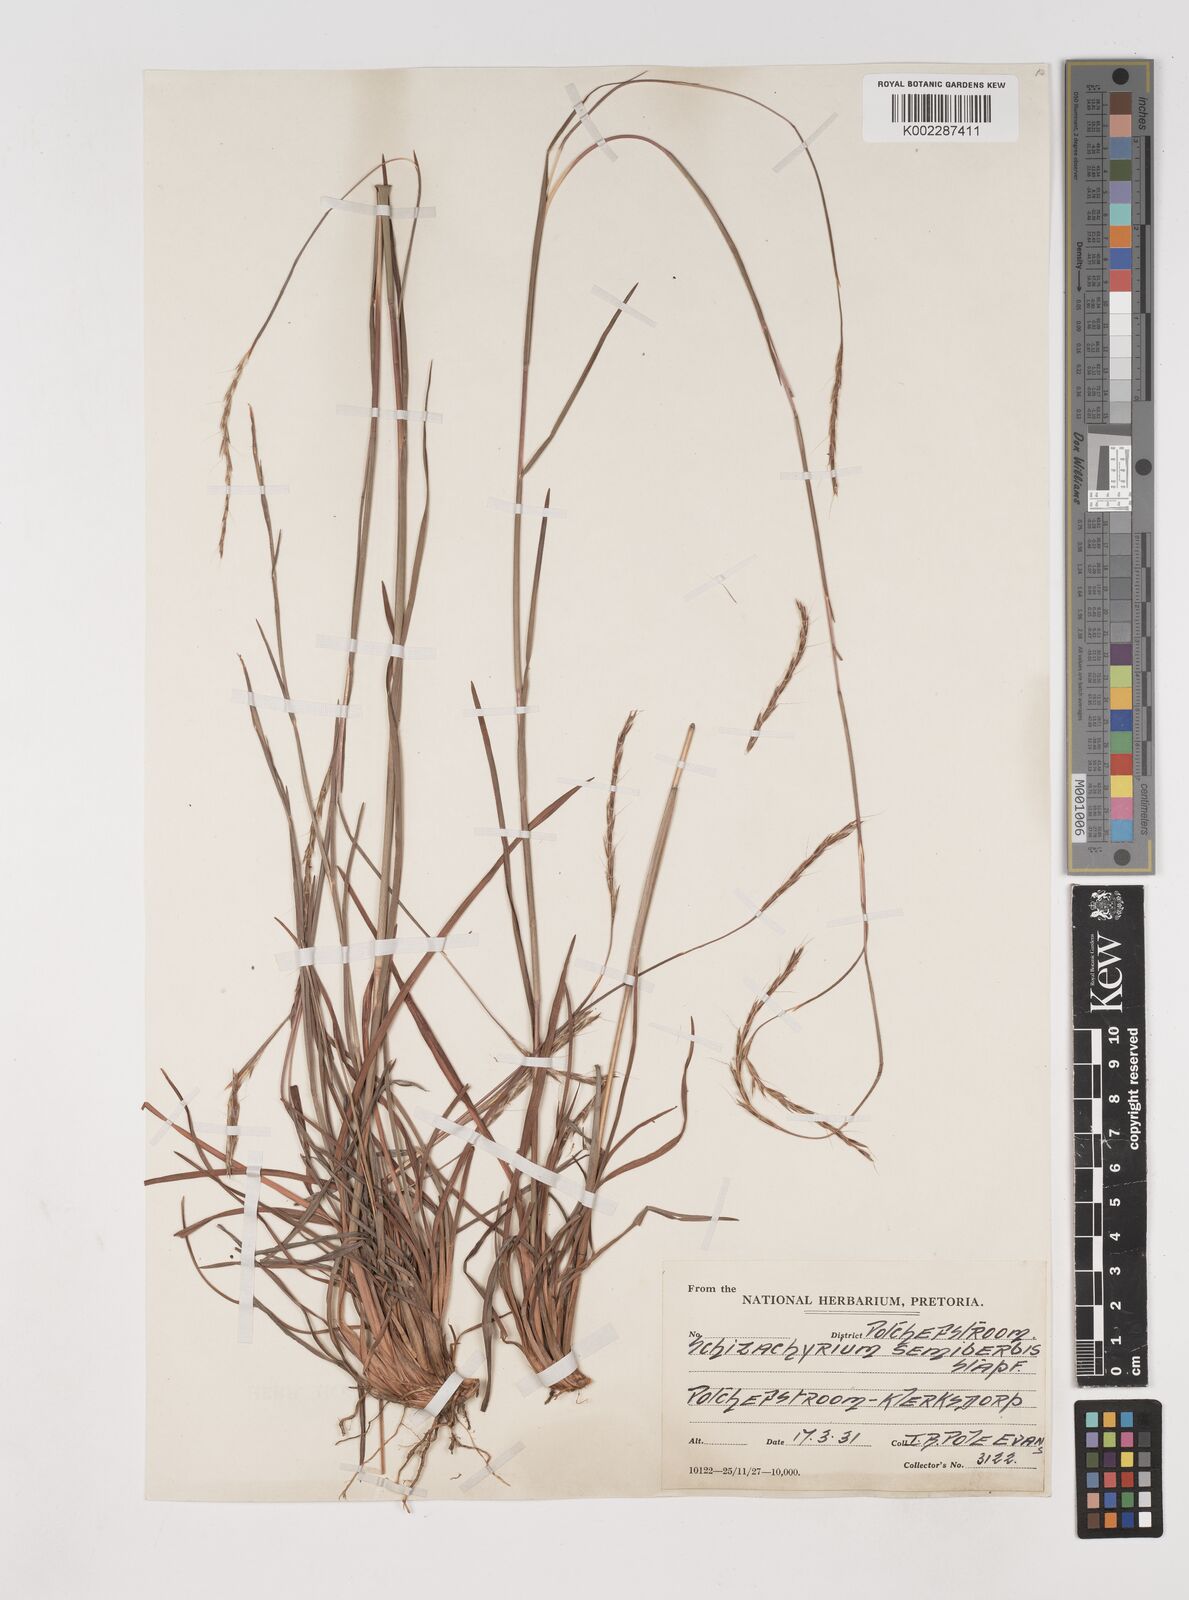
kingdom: Plantae
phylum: Tracheophyta
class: Liliopsida
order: Poales
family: Poaceae
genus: Schizachyrium
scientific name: Schizachyrium sanguineum
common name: Crimson bluestem
